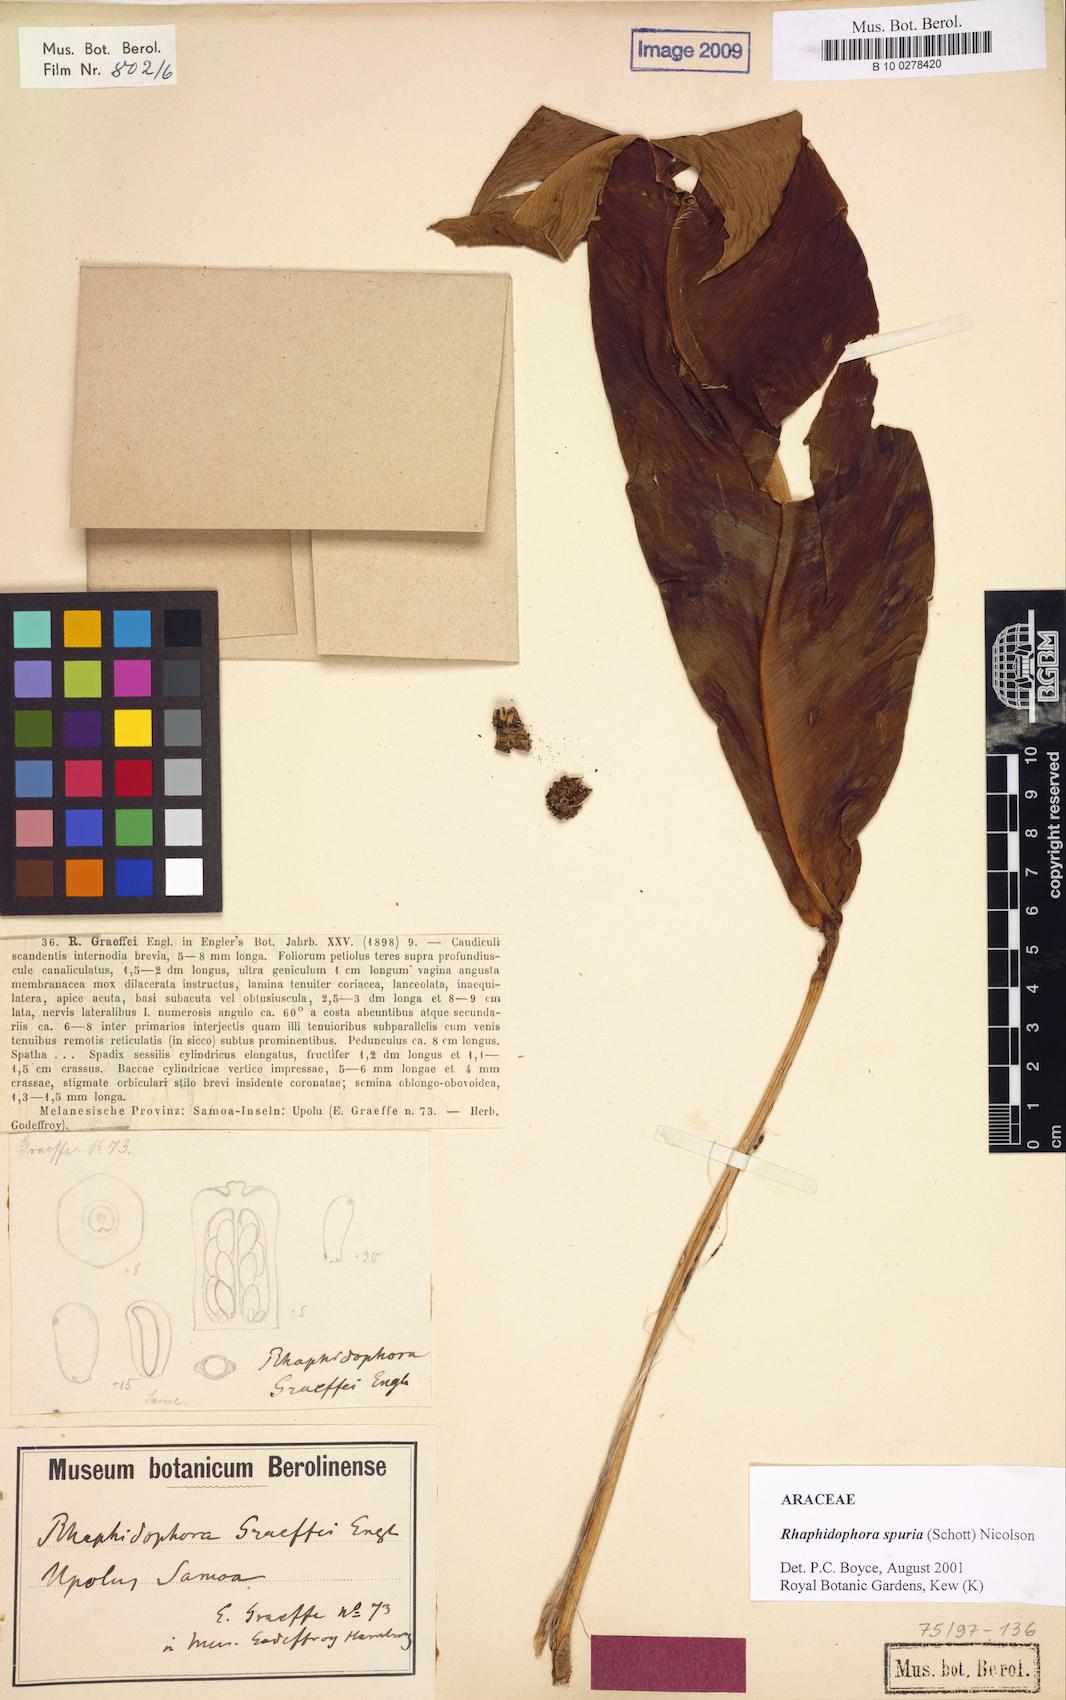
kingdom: Plantae
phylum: Tracheophyta
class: Liliopsida
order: Alismatales
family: Araceae
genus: Rhaphidophora
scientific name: Rhaphidophora spuria
